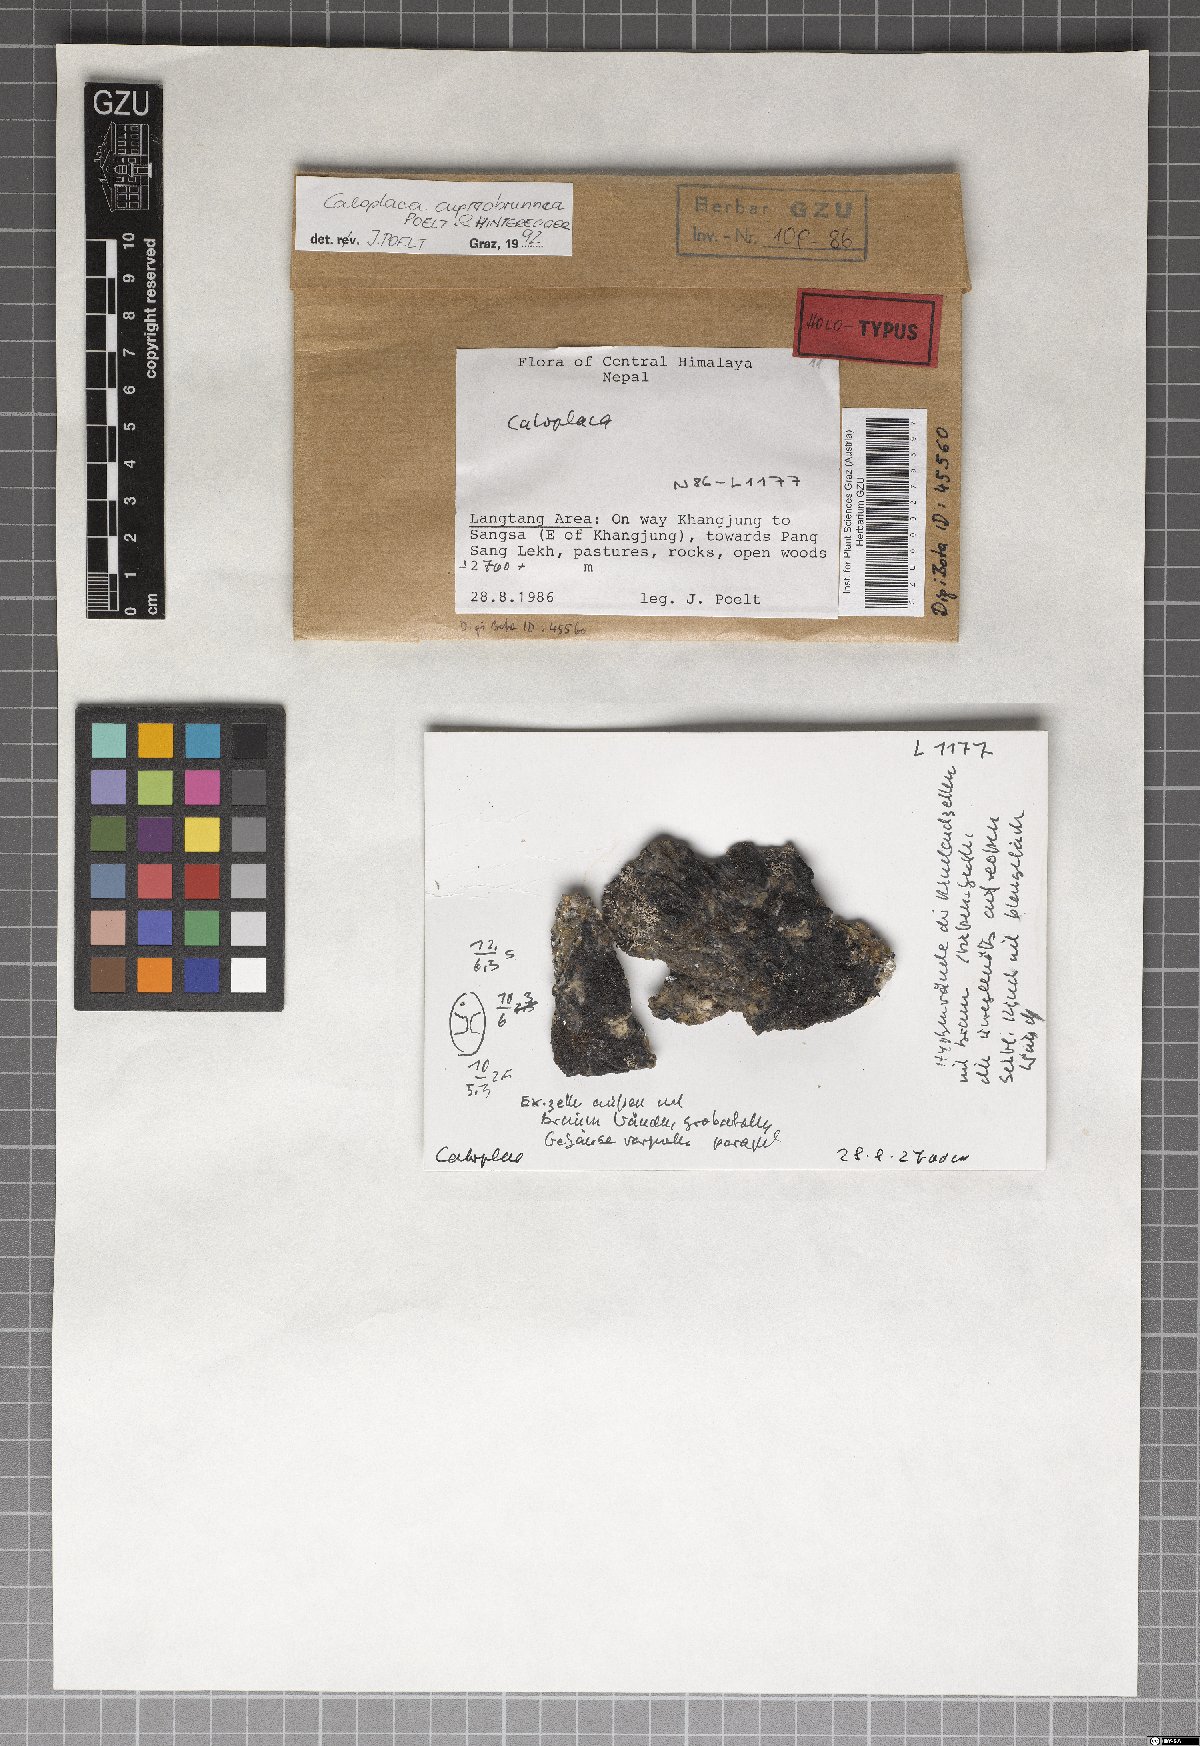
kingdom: Fungi
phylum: Ascomycota
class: Lecanoromycetes
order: Teloschistales
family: Teloschistaceae
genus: Caloplaca
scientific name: Caloplaca
